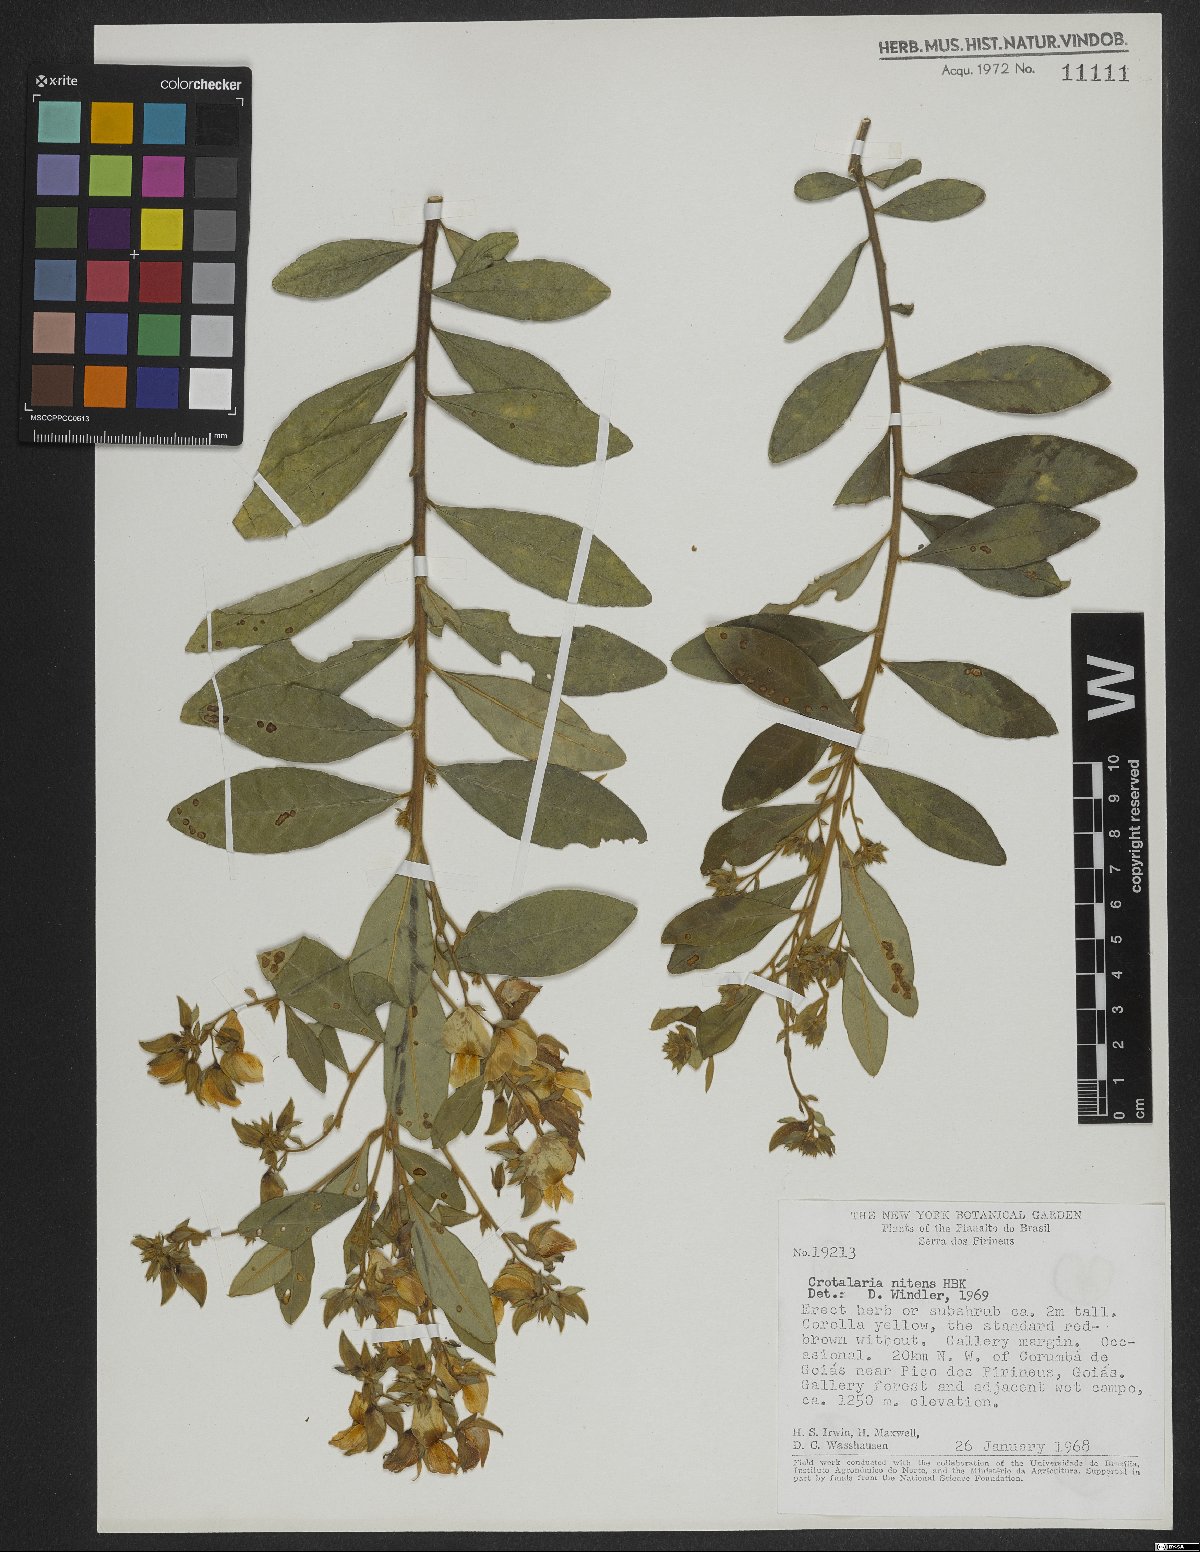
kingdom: Plantae
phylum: Tracheophyta
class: Magnoliopsida
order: Fabales
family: Fabaceae
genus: Crotalaria
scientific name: Crotalaria nitens
